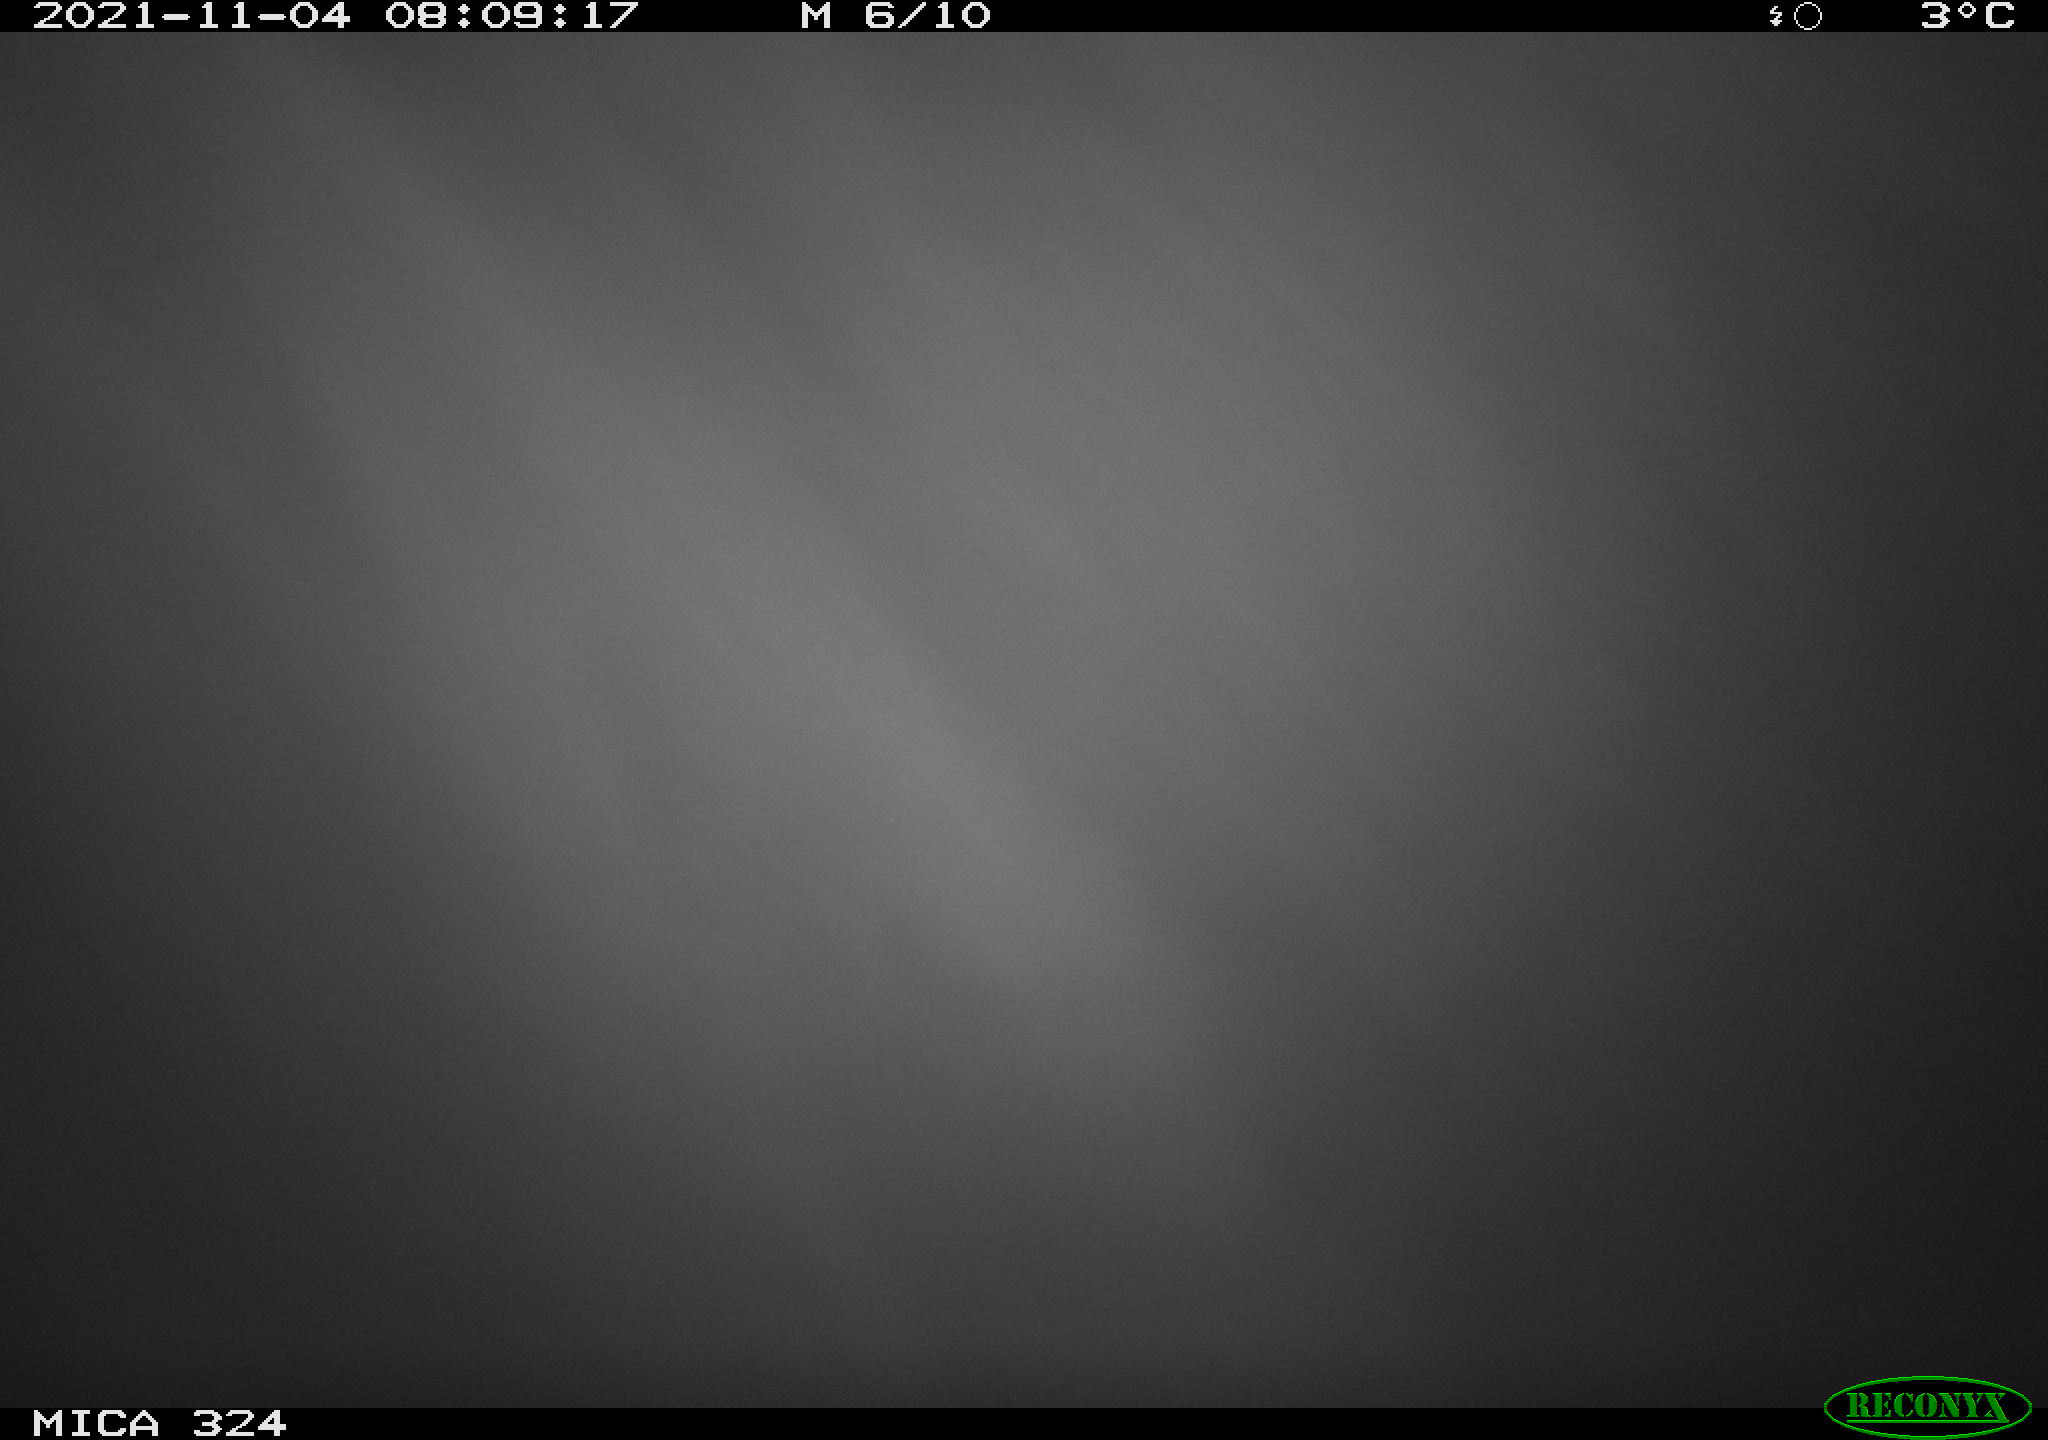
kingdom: Animalia
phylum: Chordata
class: Mammalia
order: Rodentia
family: Cricetidae
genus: Ondatra
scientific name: Ondatra zibethicus
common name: Muskrat
